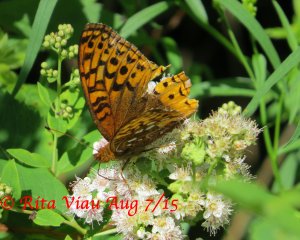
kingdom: Animalia
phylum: Arthropoda
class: Insecta
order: Lepidoptera
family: Nymphalidae
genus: Speyeria
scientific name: Speyeria cybele
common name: Great Spangled Fritillary
